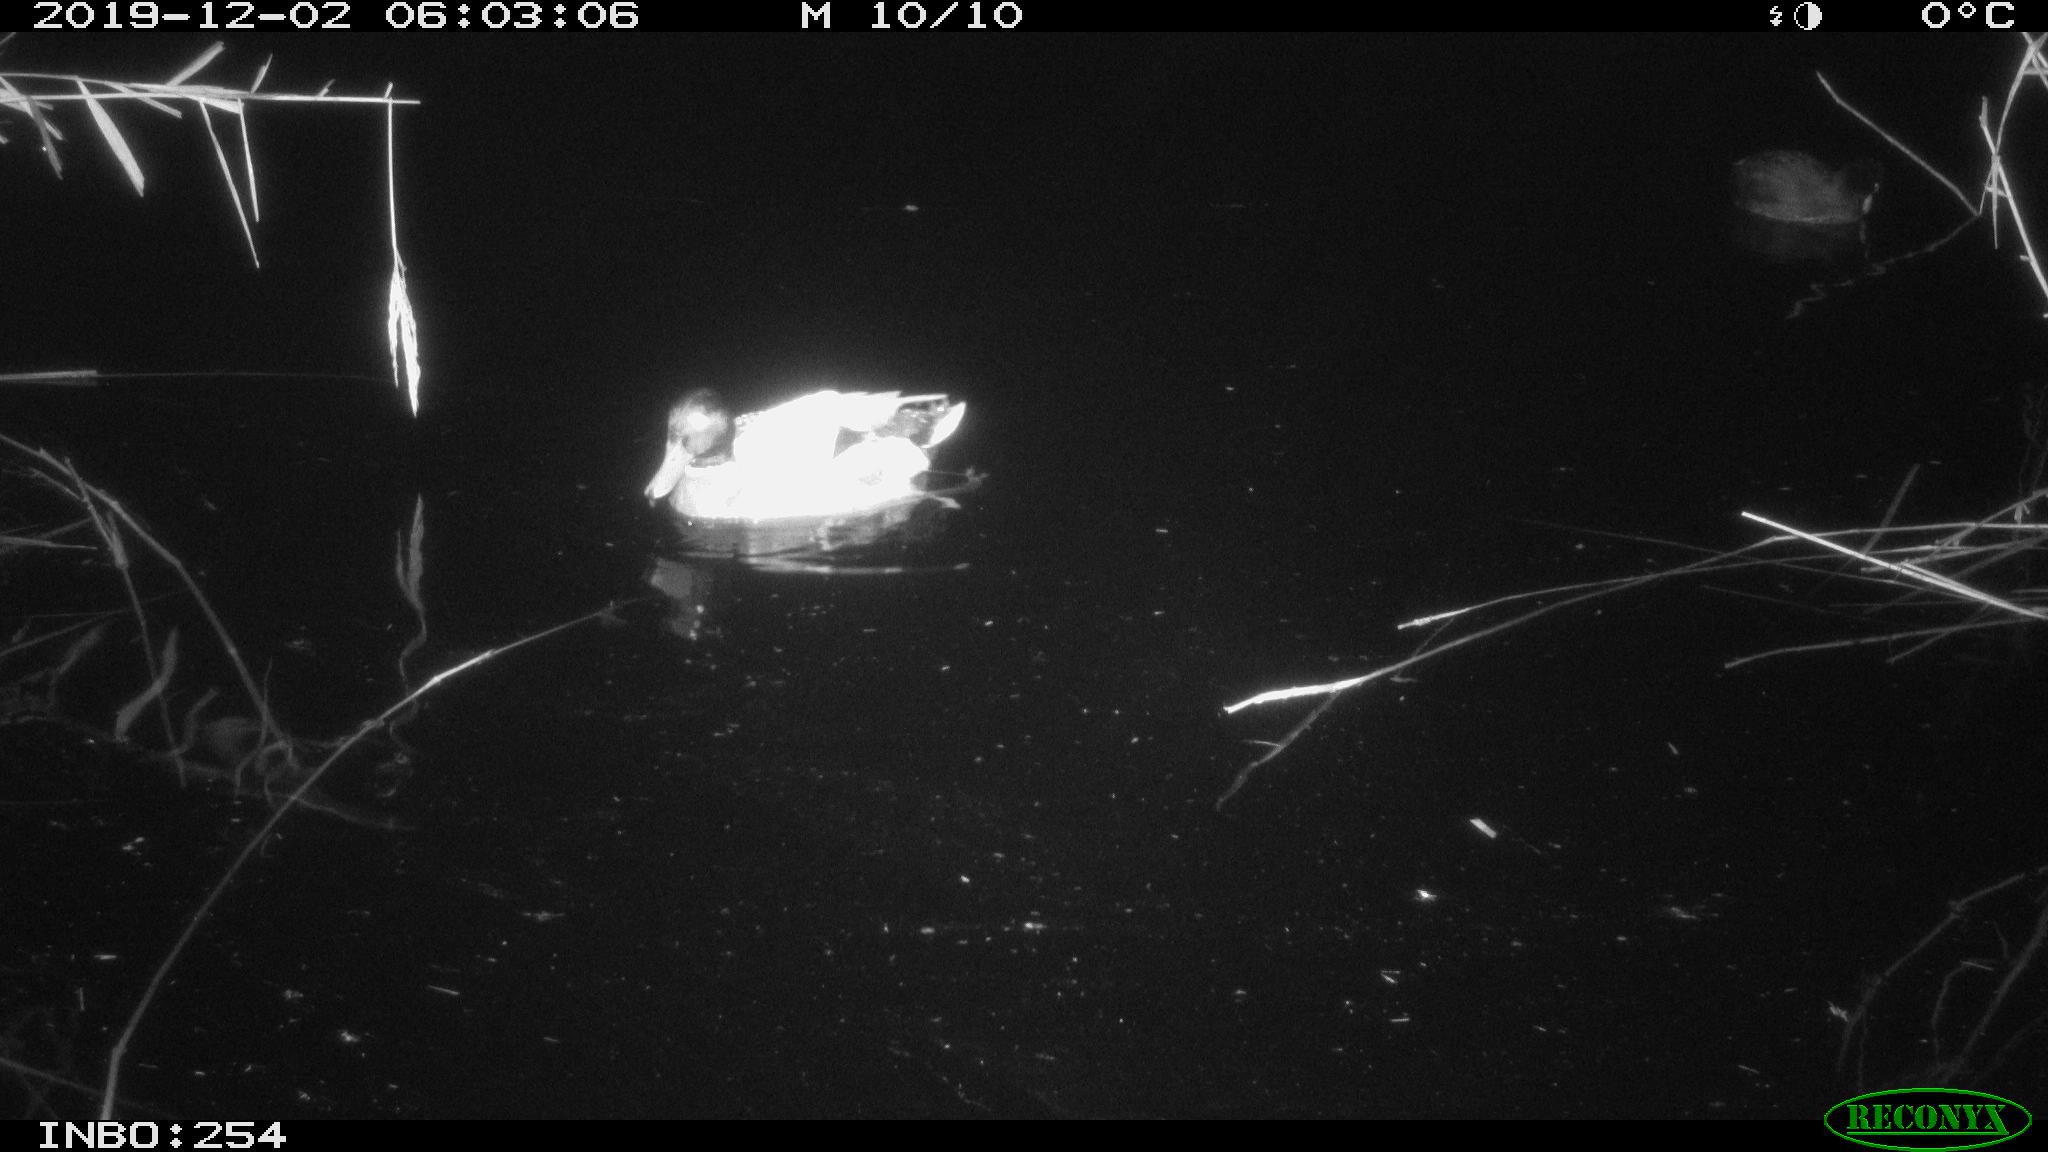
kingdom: Animalia
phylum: Chordata
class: Aves
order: Gruiformes
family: Rallidae
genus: Fulica
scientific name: Fulica atra
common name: Eurasian coot
